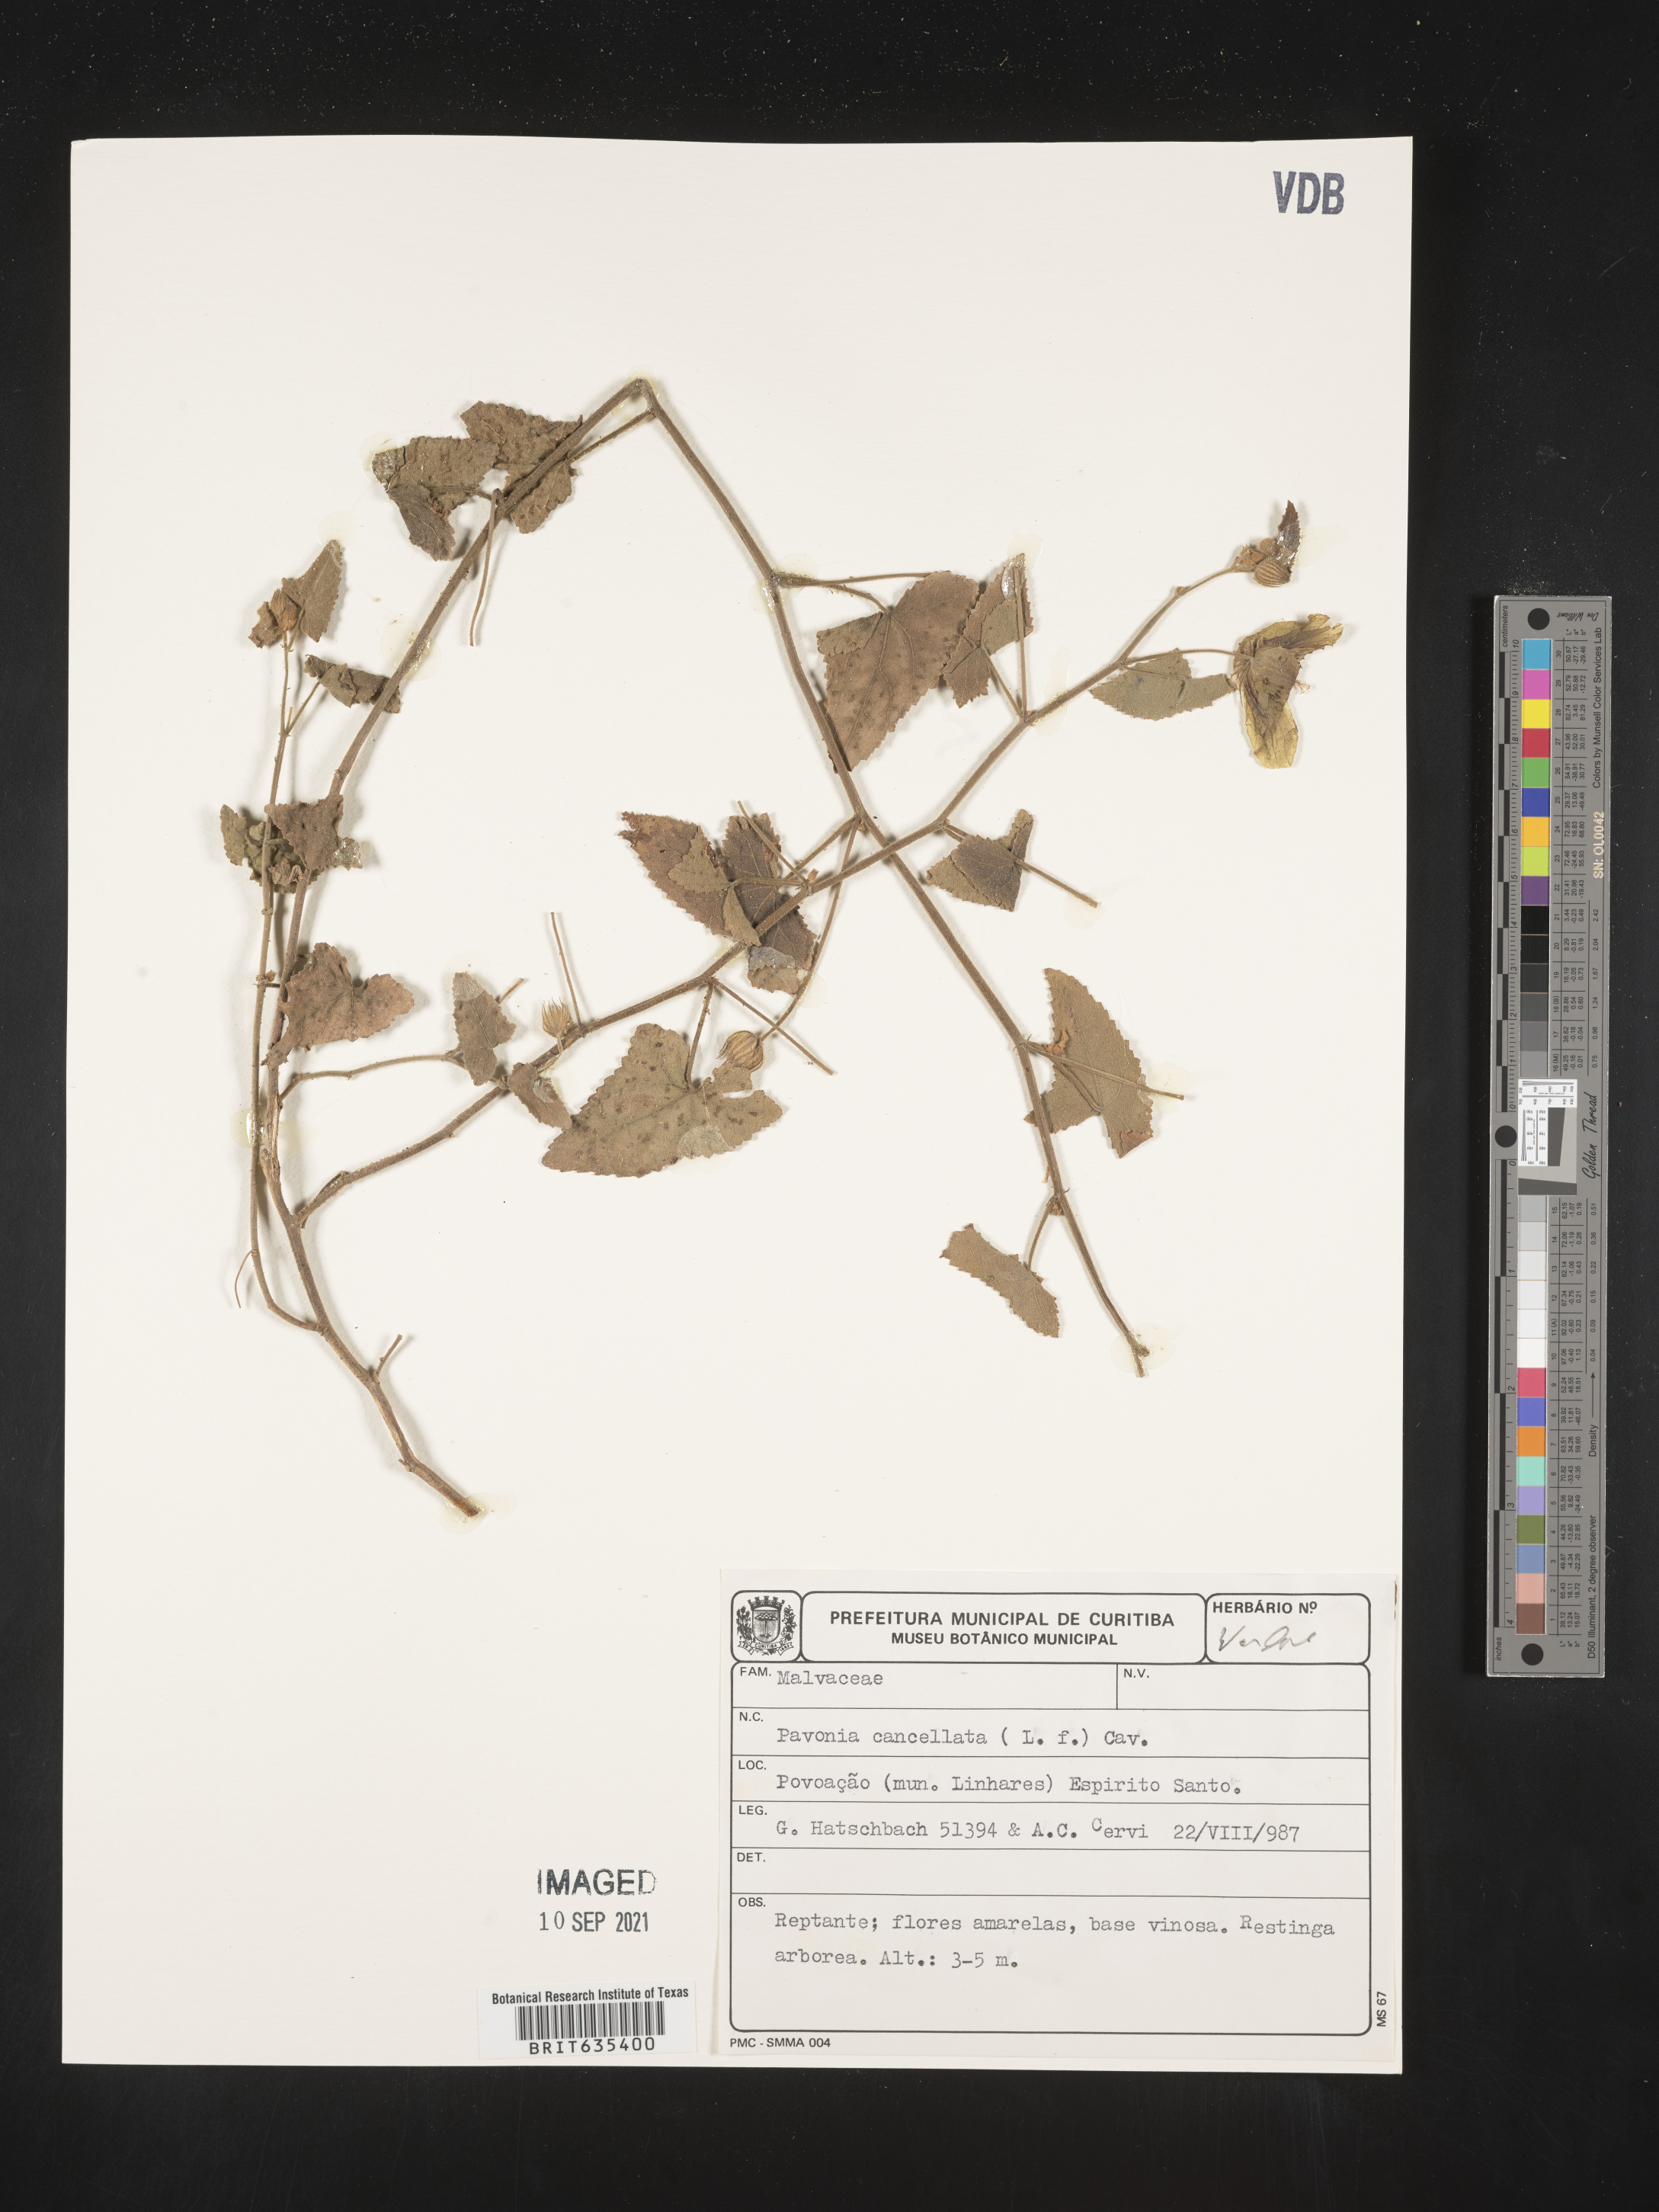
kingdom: Plantae
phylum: Tracheophyta
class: Magnoliopsida
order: Malvales
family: Malvaceae
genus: Pavonia
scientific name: Pavonia
